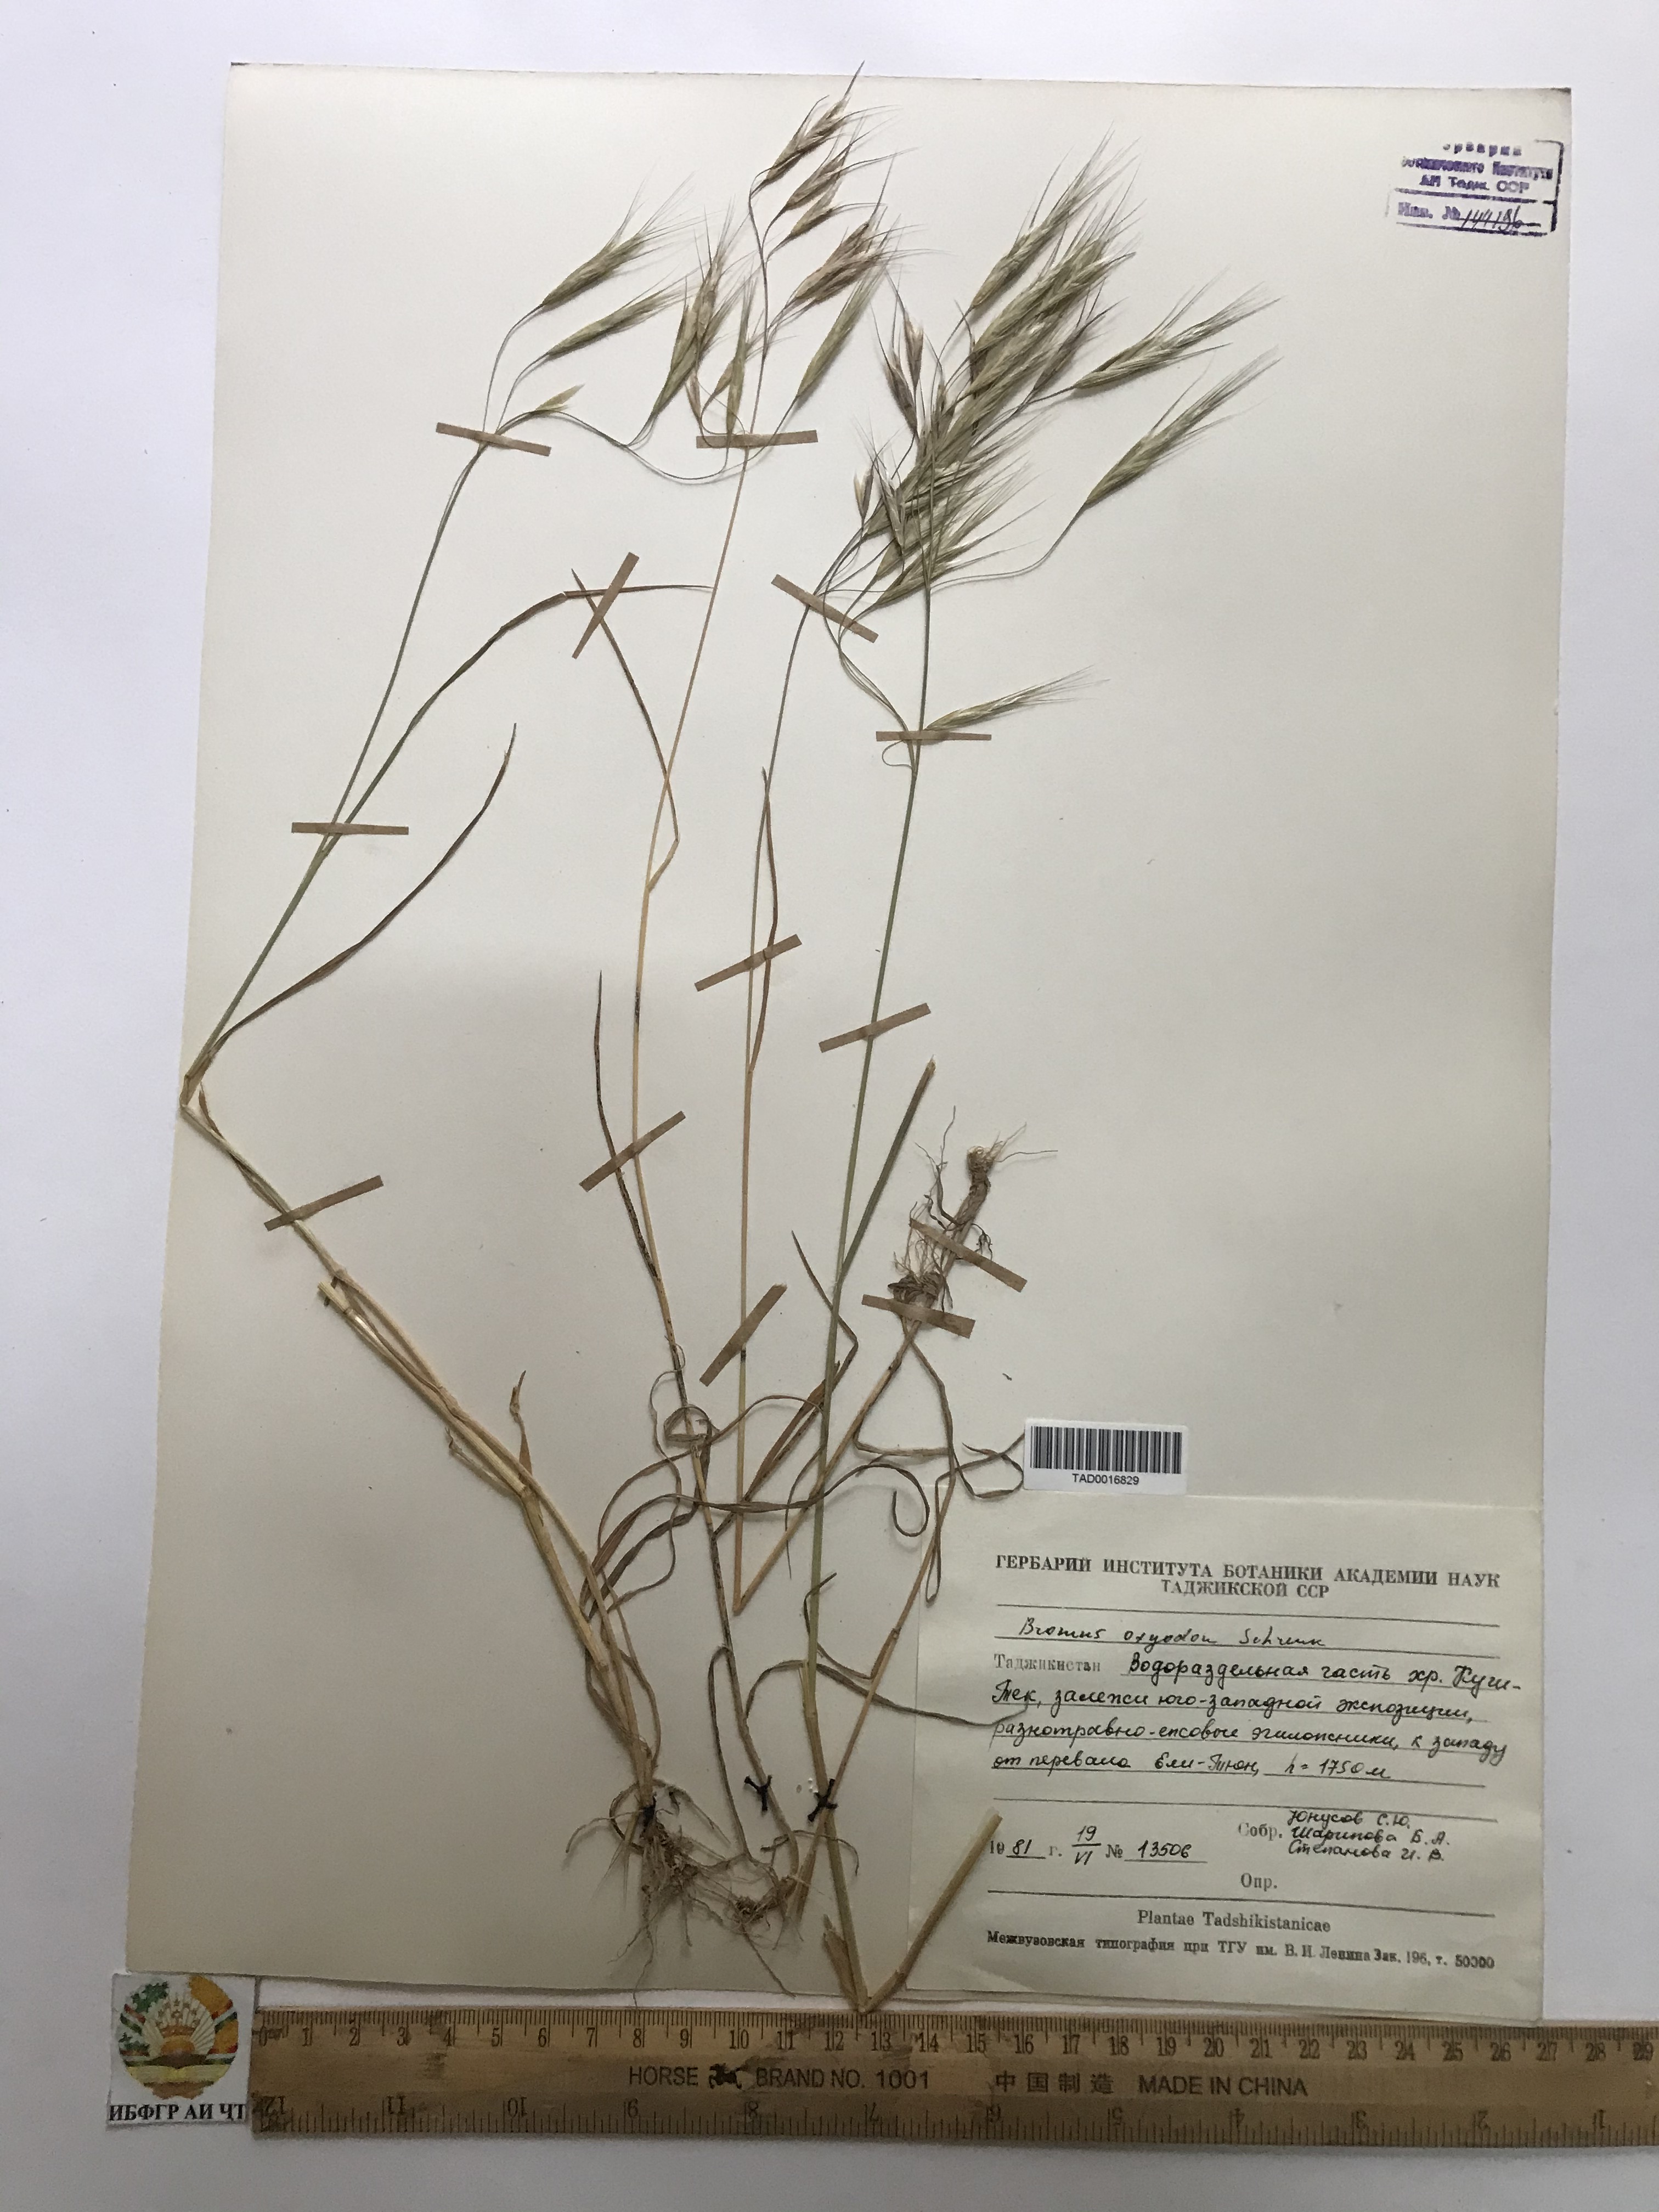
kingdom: Plantae
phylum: Tracheophyta
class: Liliopsida
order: Poales
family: Poaceae
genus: Bromus
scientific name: Bromus oxyodon
